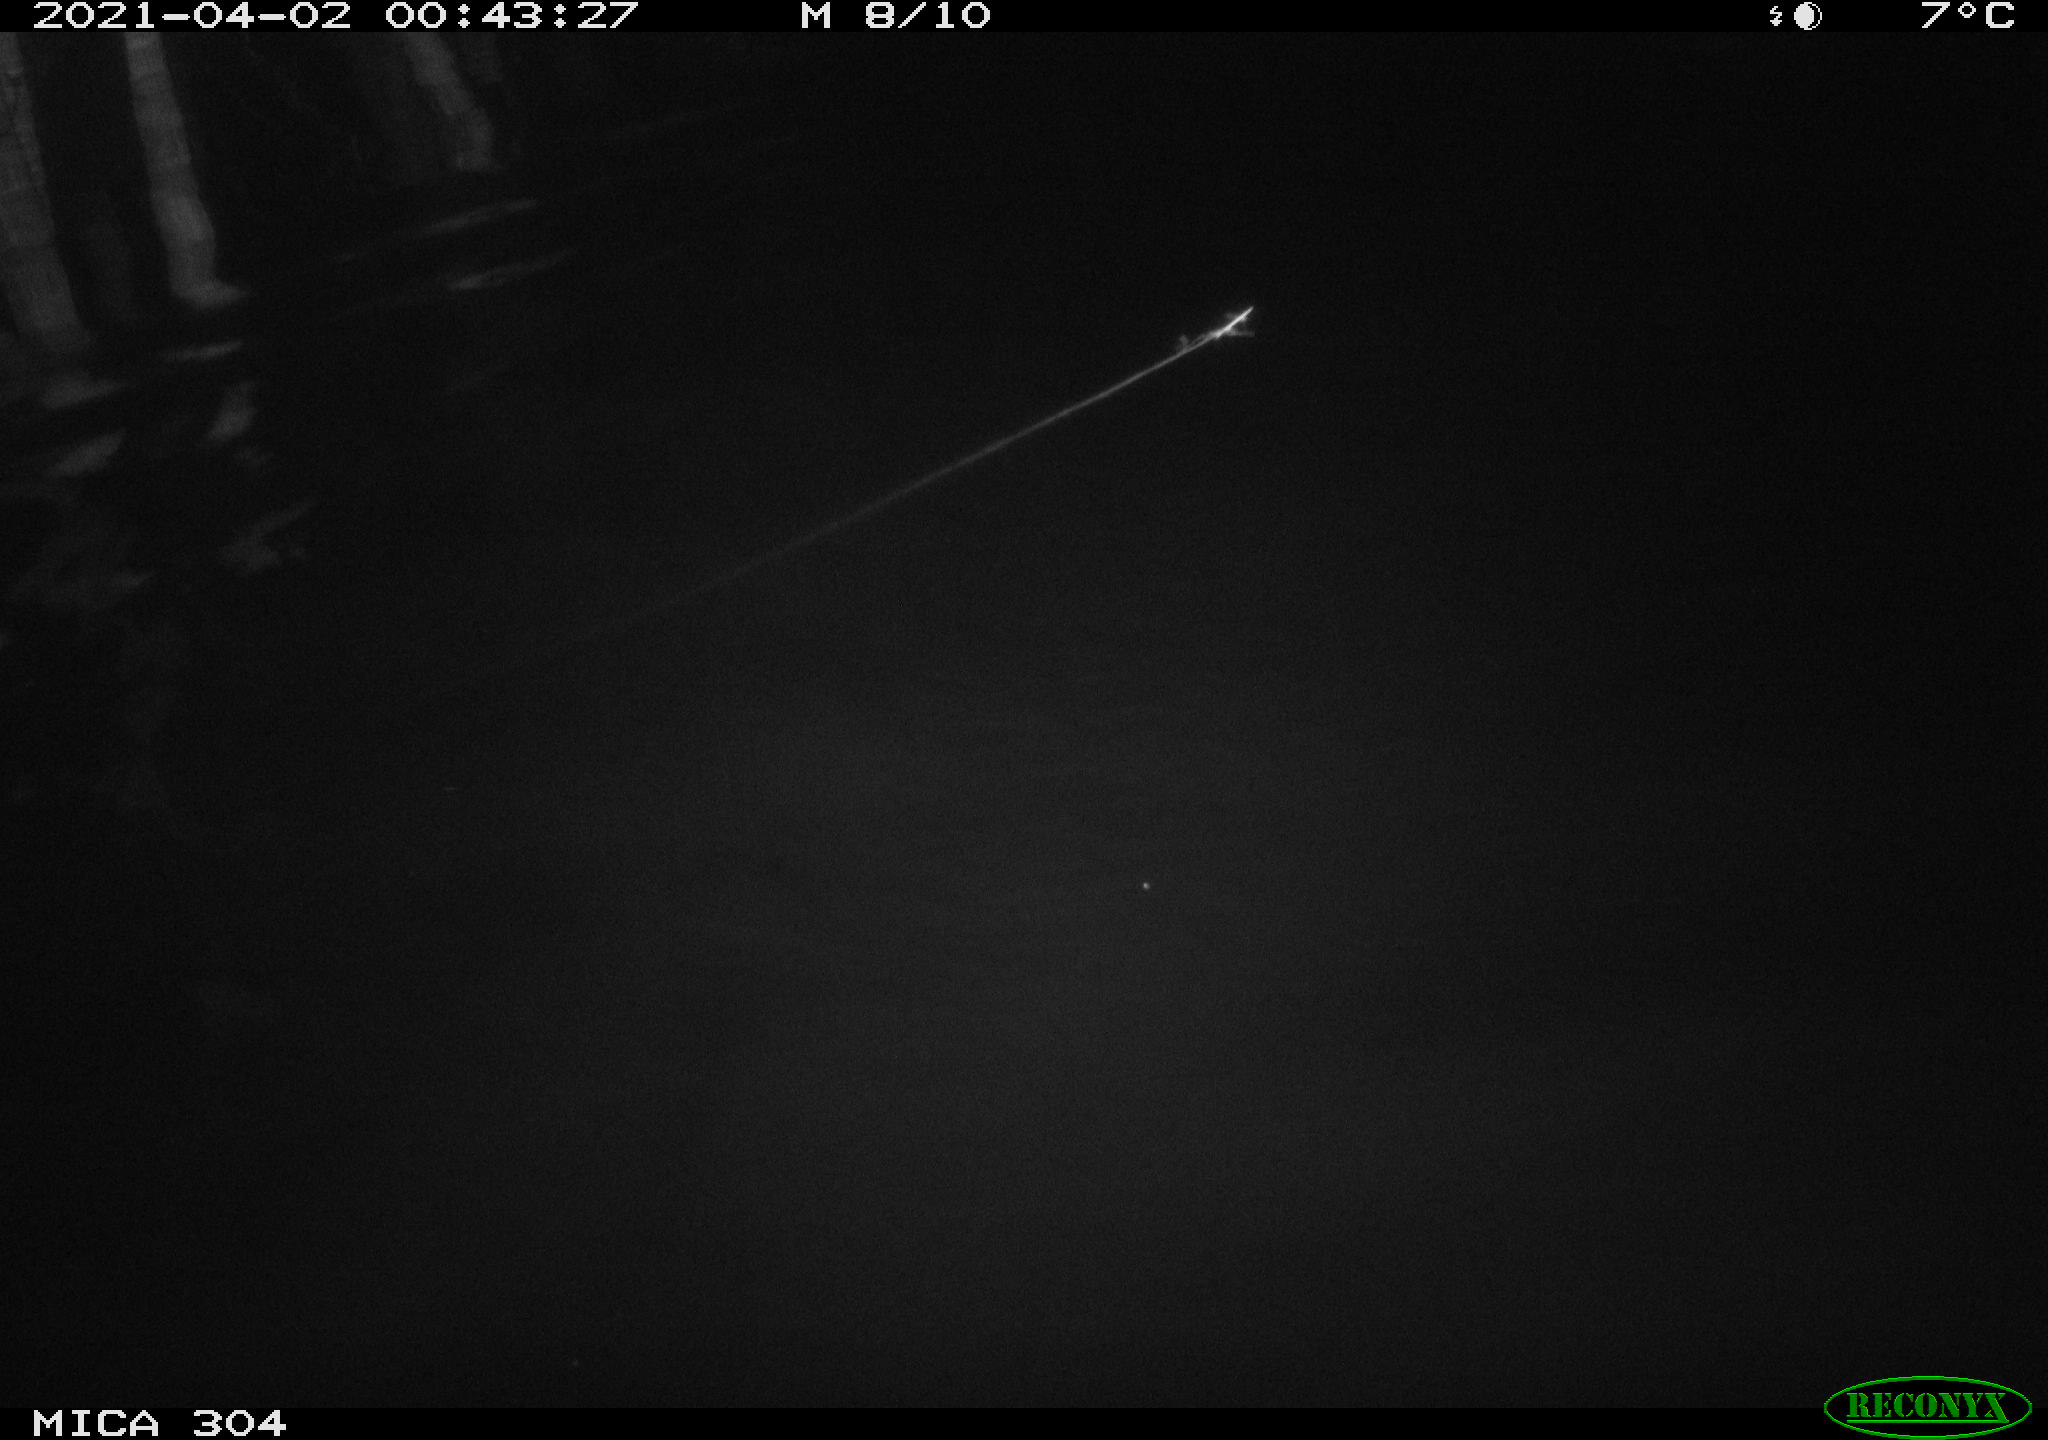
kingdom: Animalia
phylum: Chordata
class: Aves
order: Anseriformes
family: Anatidae
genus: Anas
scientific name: Anas
